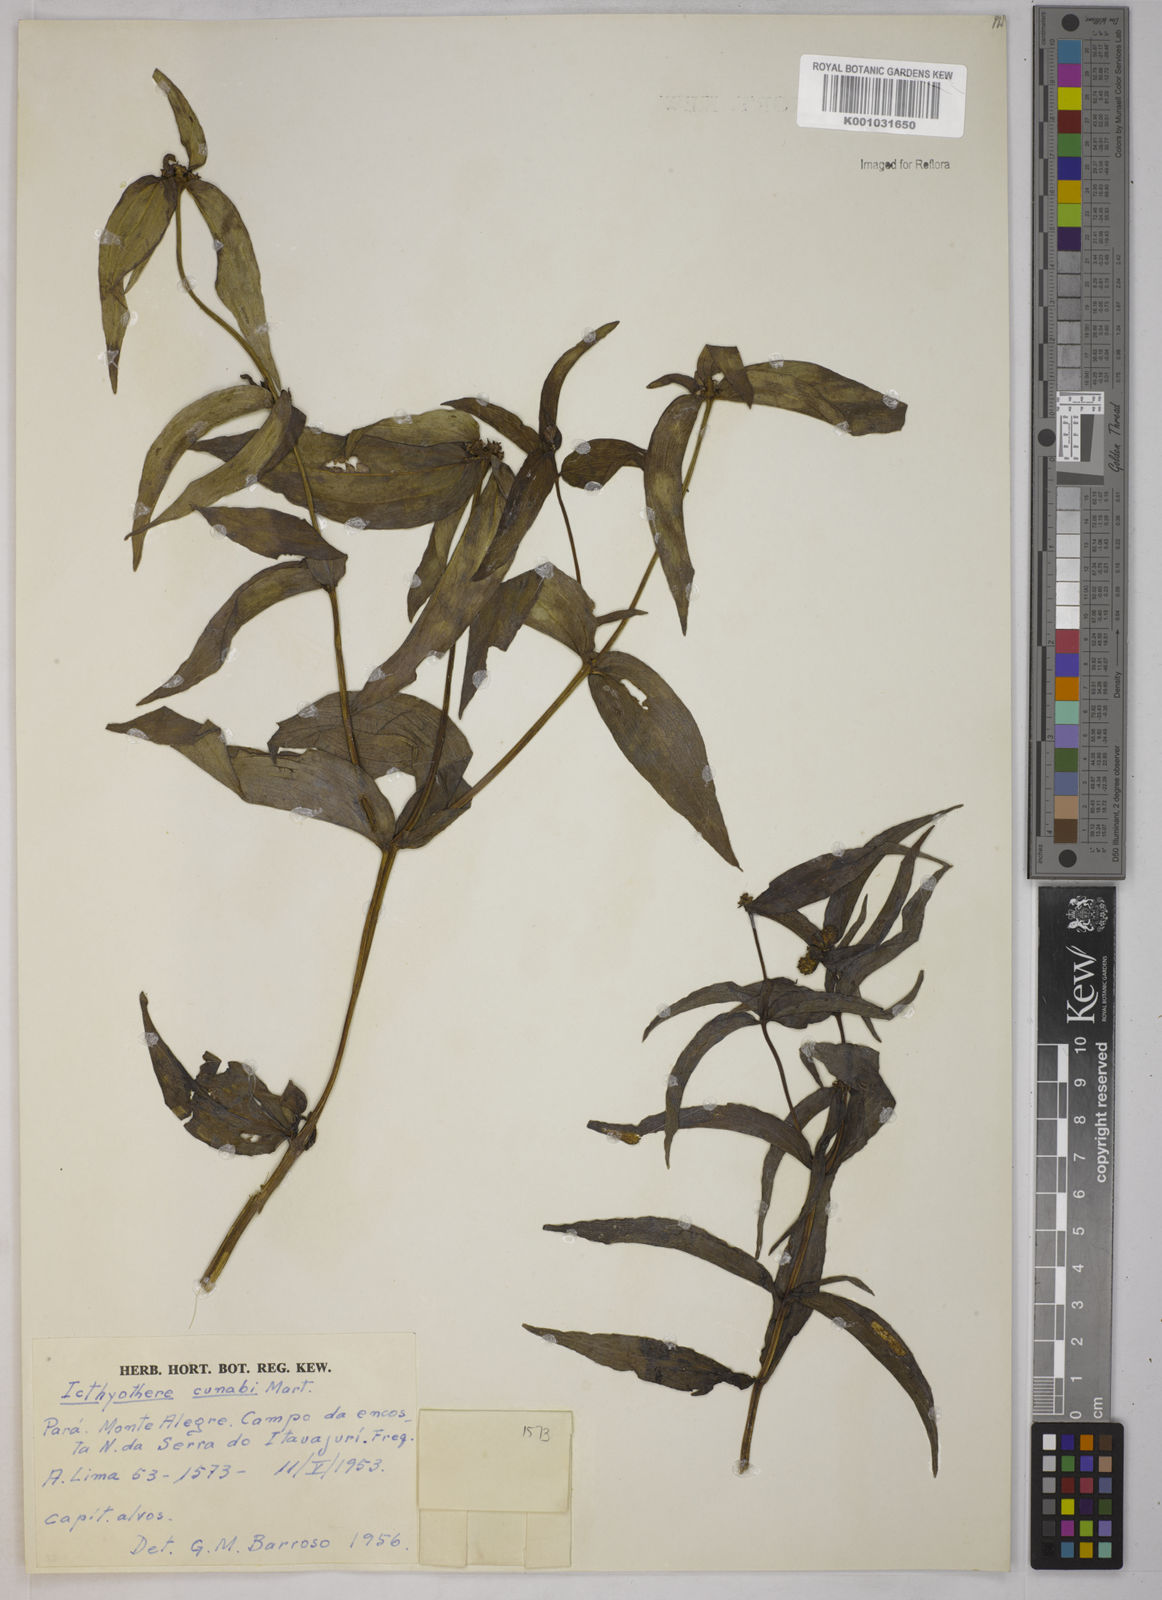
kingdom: Plantae
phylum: Tracheophyta
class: Magnoliopsida
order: Asterales
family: Asteraceae
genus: Ichthyothere
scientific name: Ichthyothere terminalis
